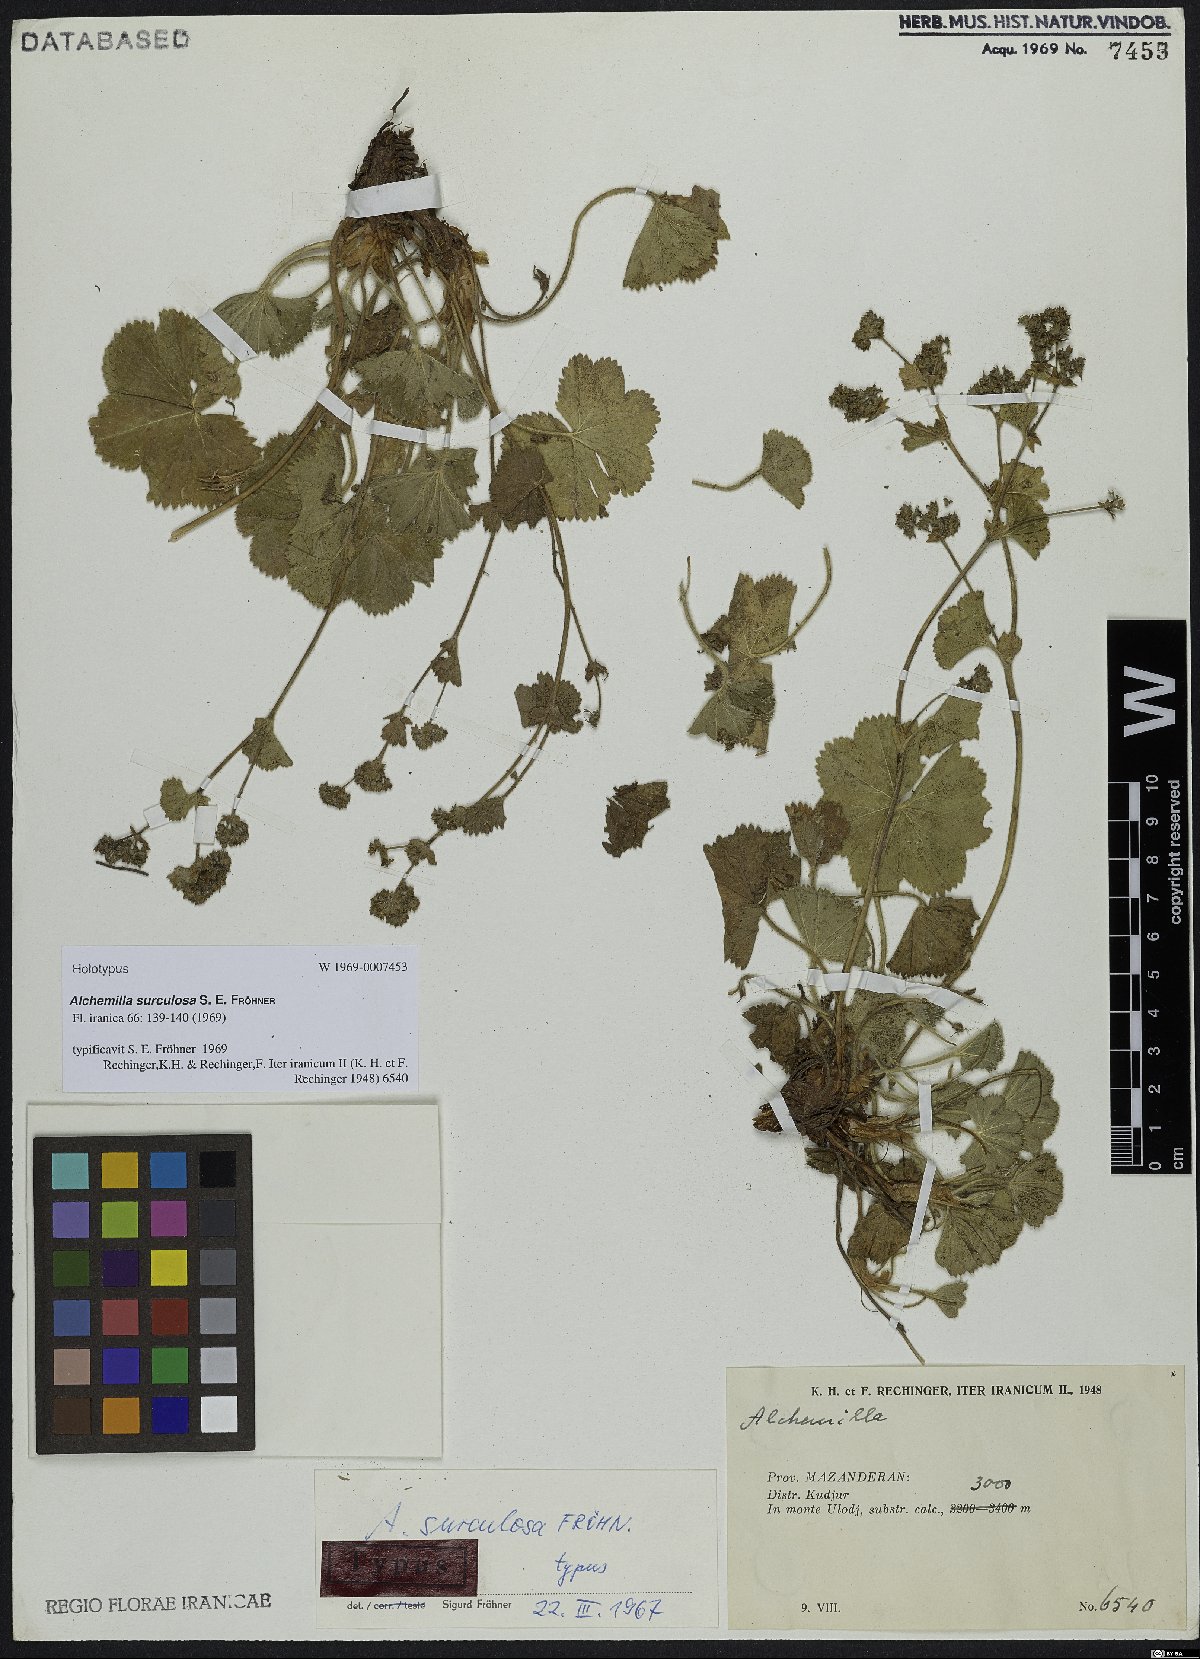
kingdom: Plantae
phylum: Tracheophyta
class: Magnoliopsida
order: Rosales
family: Rosaceae
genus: Alchemilla
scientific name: Alchemilla surculosa
